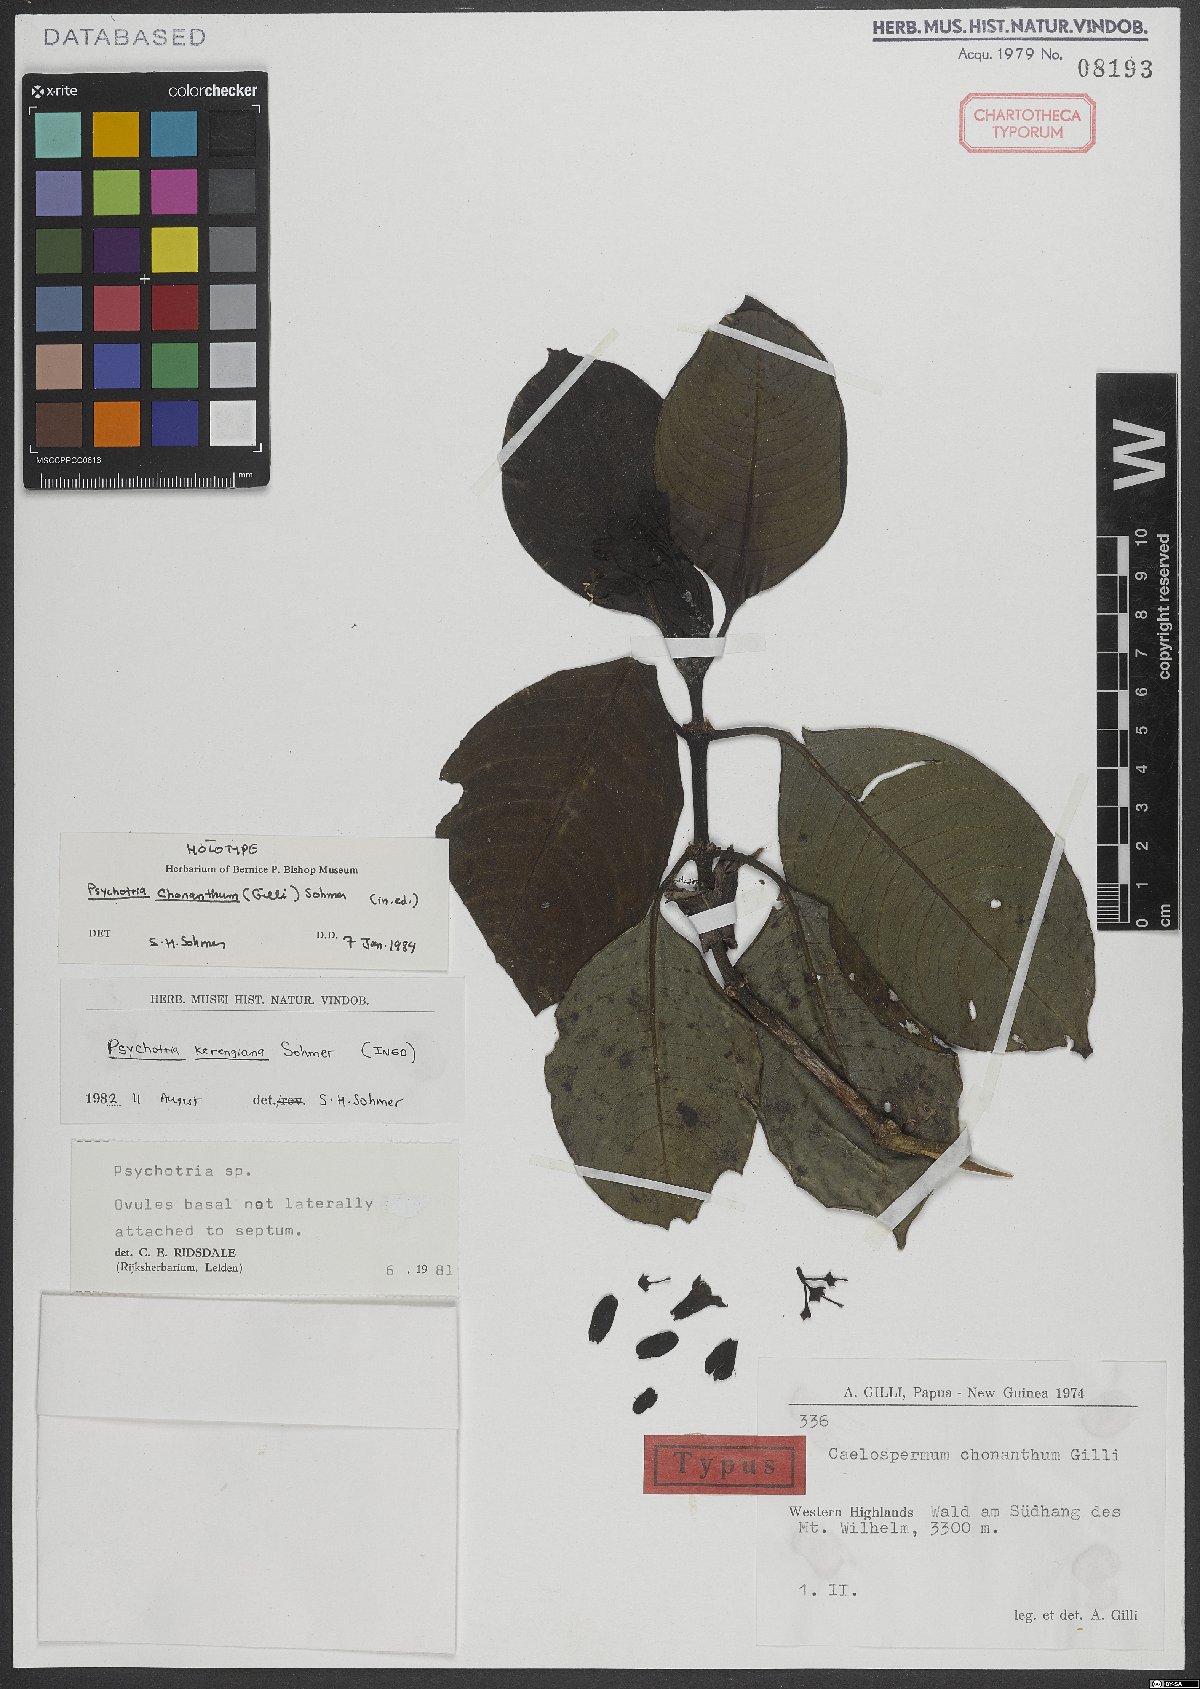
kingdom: Plantae
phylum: Tracheophyta
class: Magnoliopsida
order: Gentianales
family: Rubiaceae
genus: Psychotria
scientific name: Psychotria chonantha
